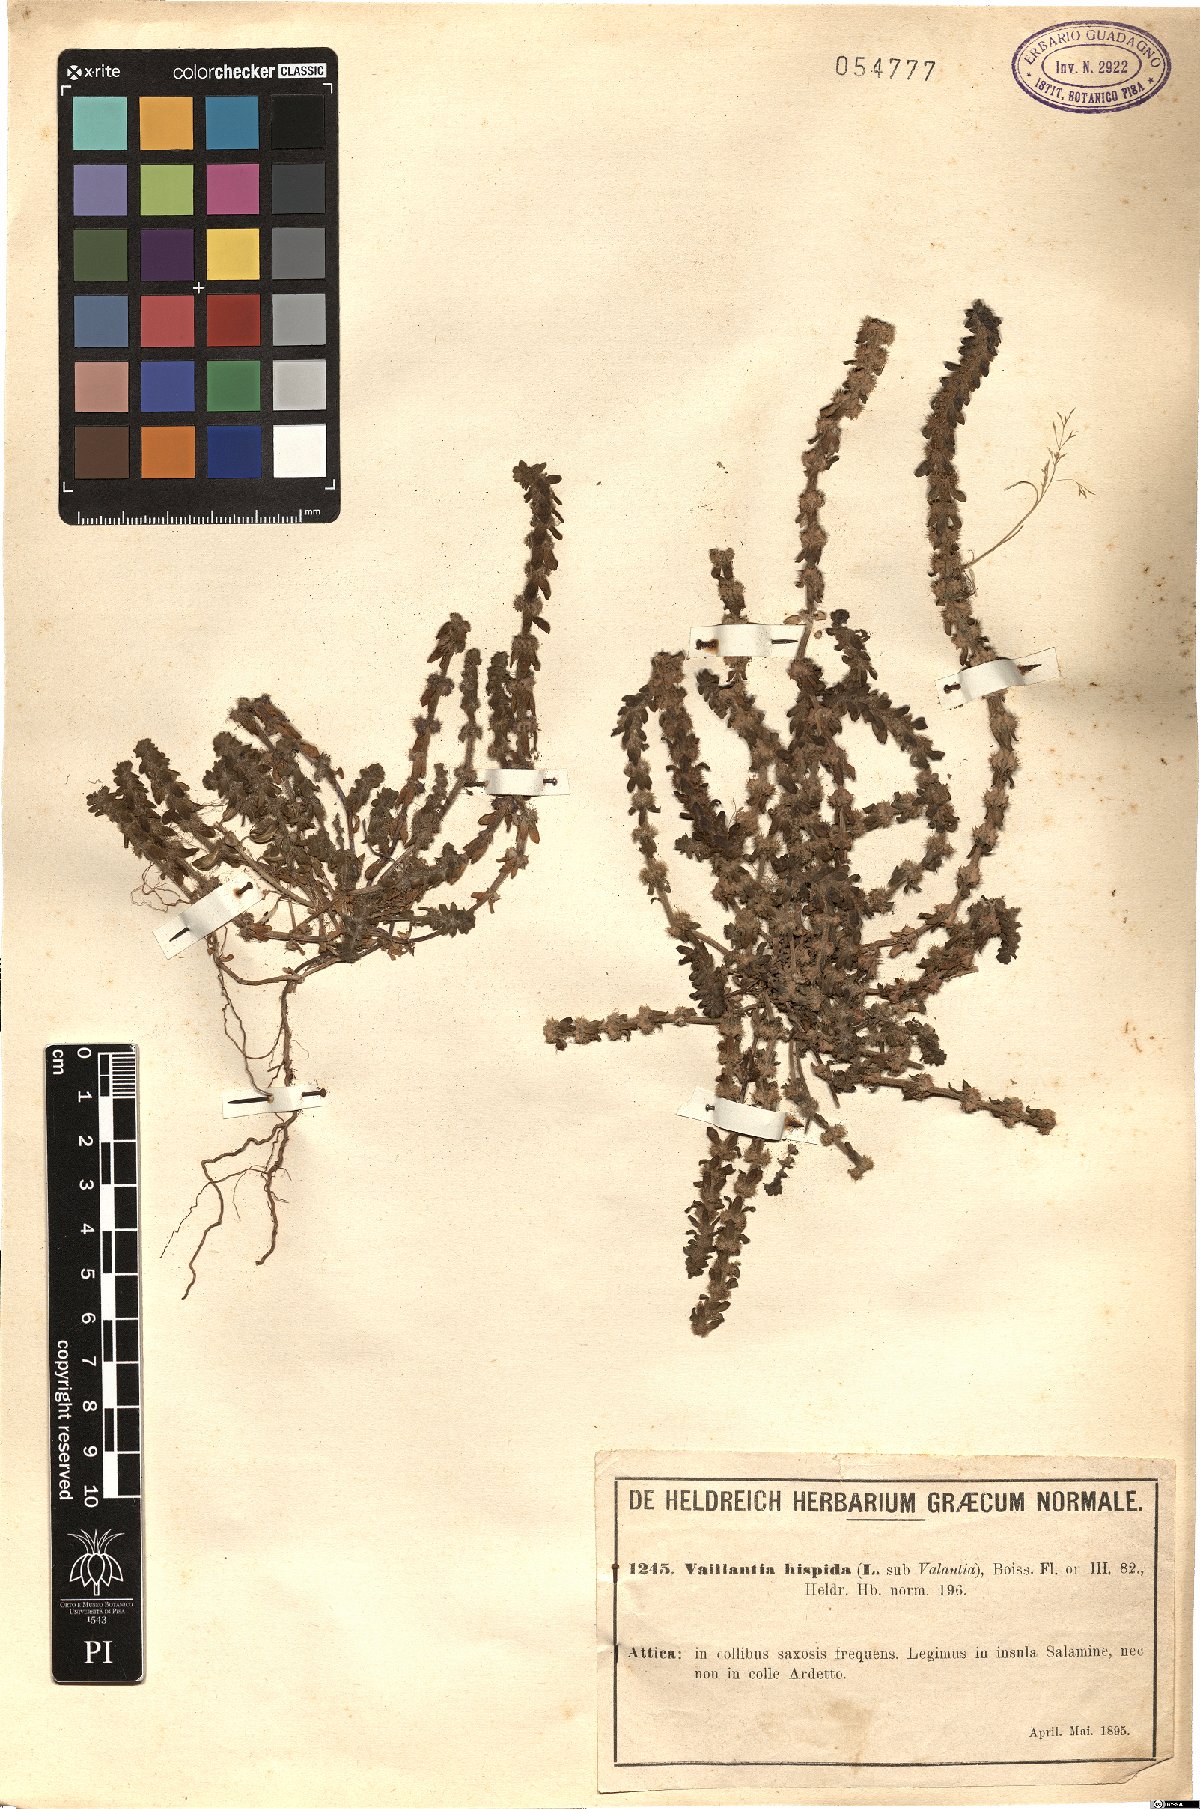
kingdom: Plantae
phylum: Tracheophyta
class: Magnoliopsida
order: Gentianales
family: Rubiaceae
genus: Valantia
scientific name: Valantia hispida
